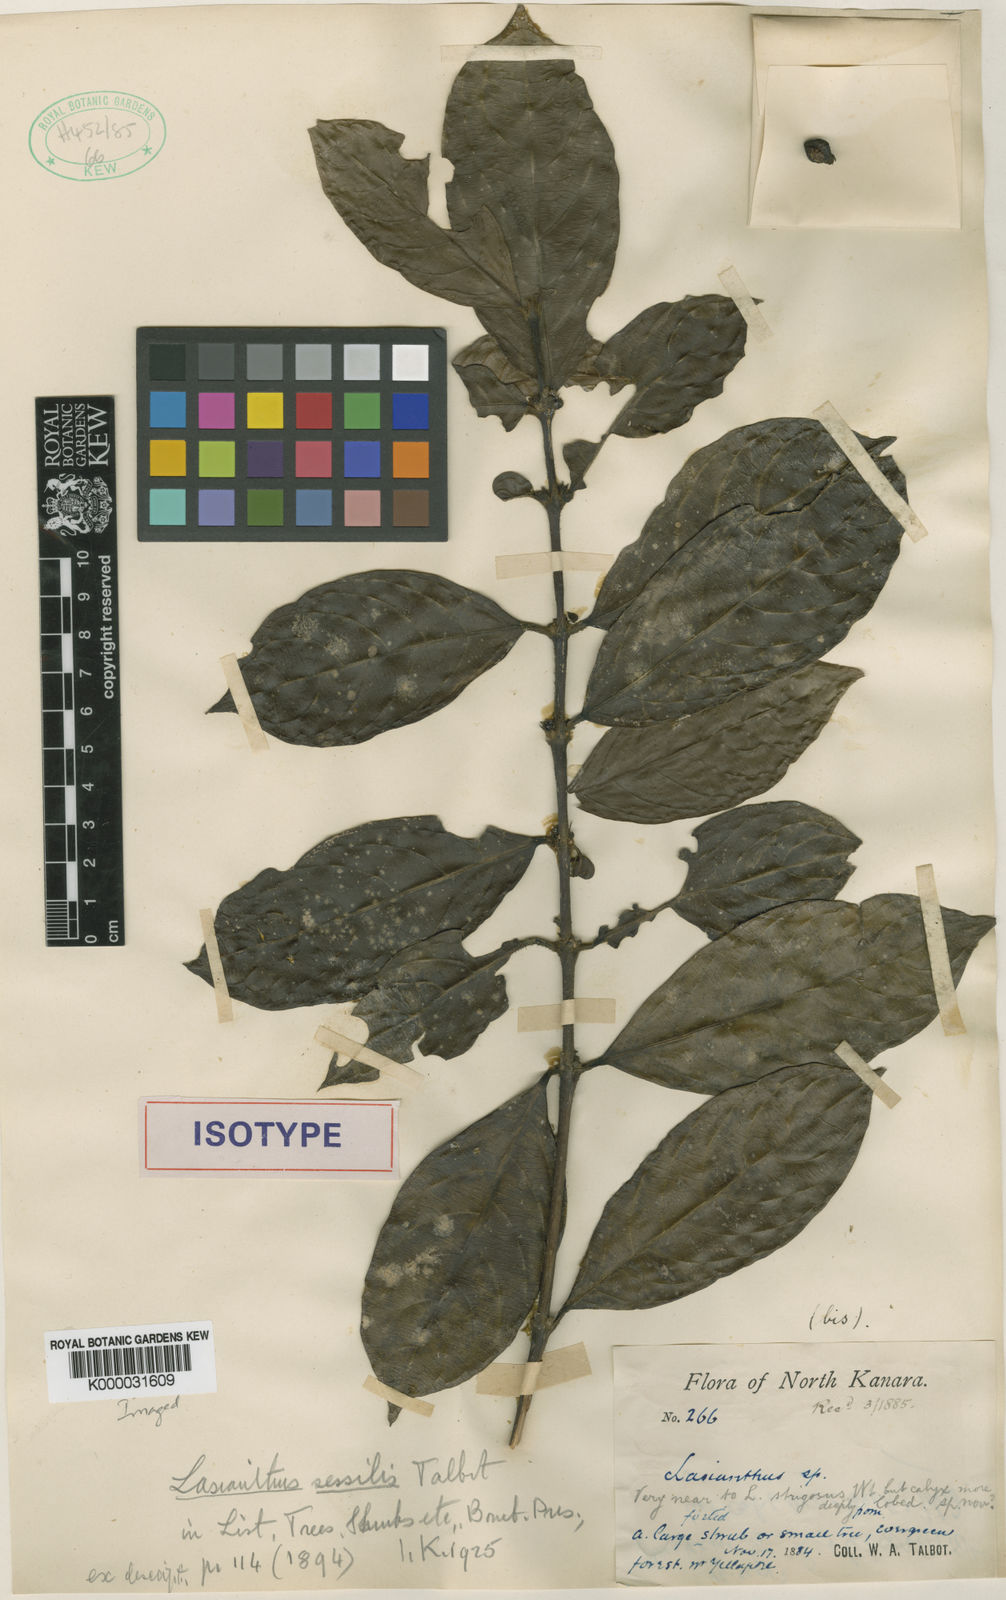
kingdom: Plantae
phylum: Tracheophyta
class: Magnoliopsida
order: Gentianales
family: Rubiaceae
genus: Lasianthus
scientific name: Lasianthus sessilis
